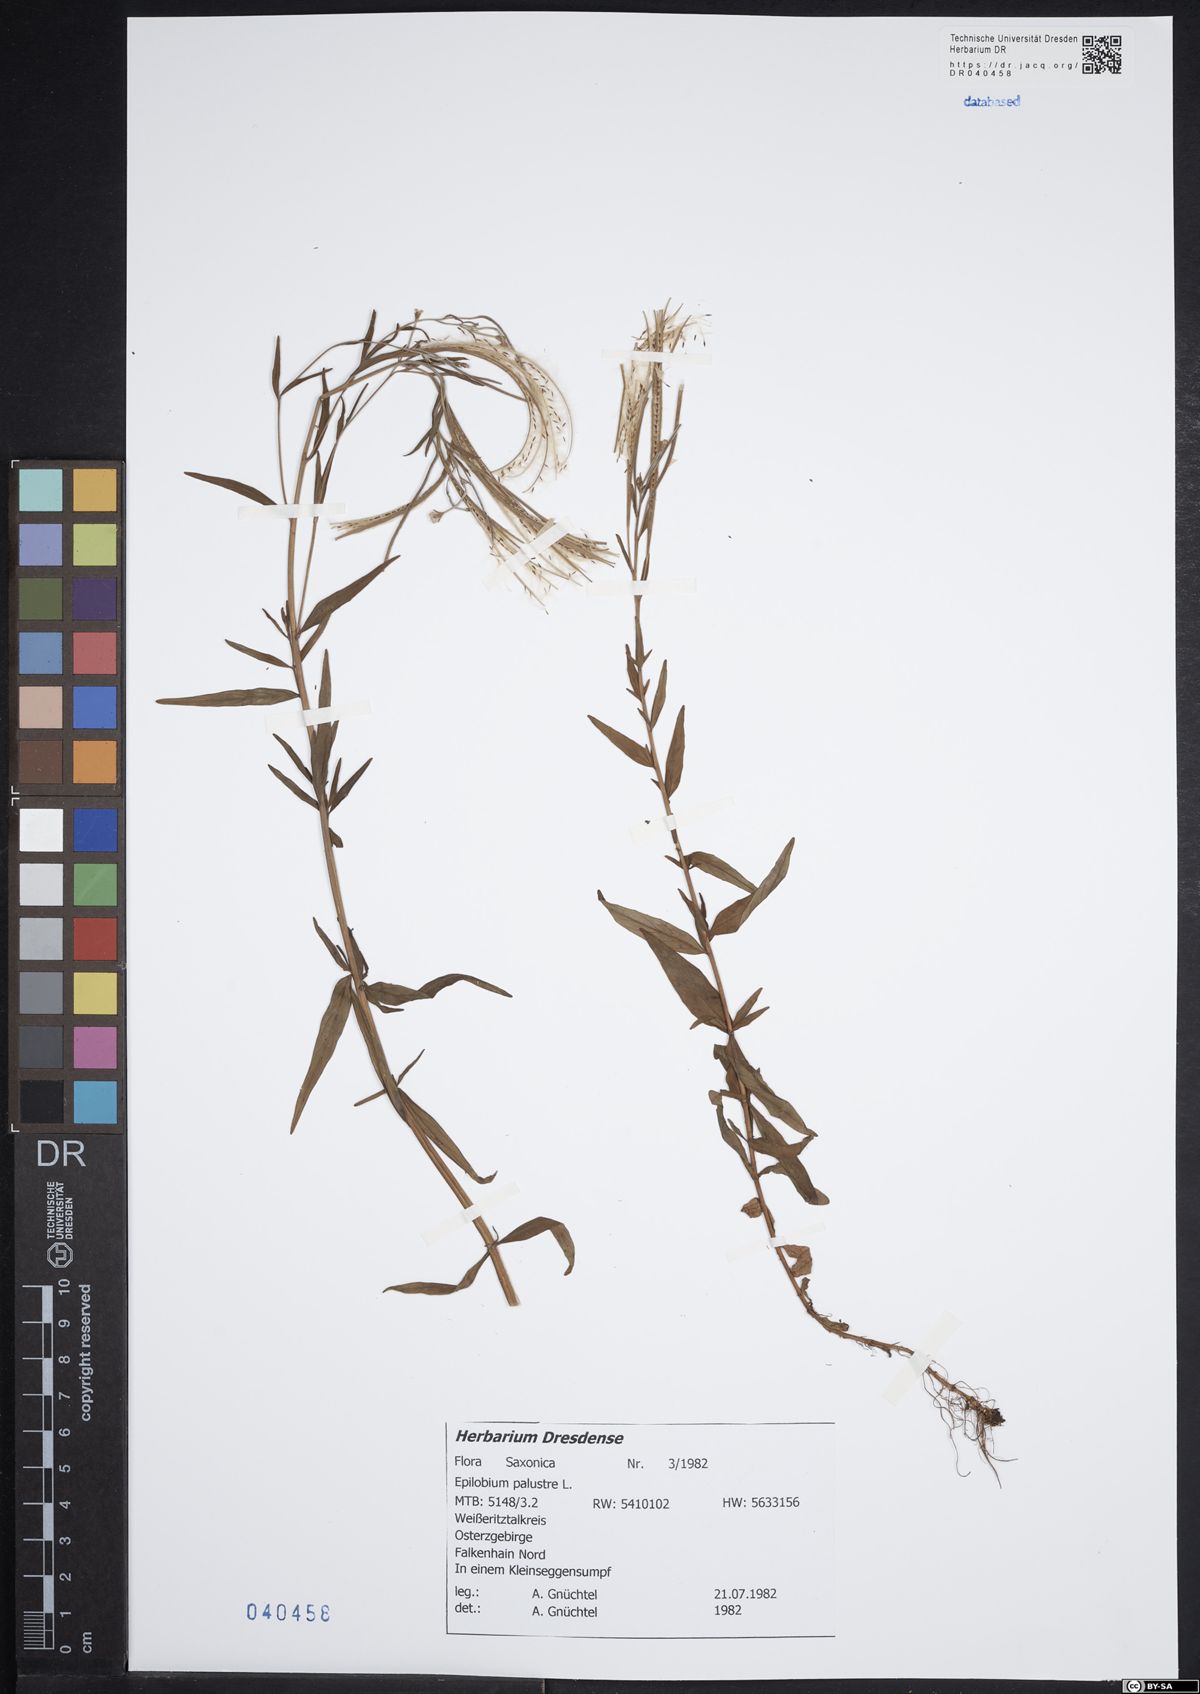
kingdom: Plantae
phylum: Tracheophyta
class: Magnoliopsida
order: Myrtales
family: Onagraceae
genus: Epilobium
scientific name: Epilobium palustre
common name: Marsh willowherb
